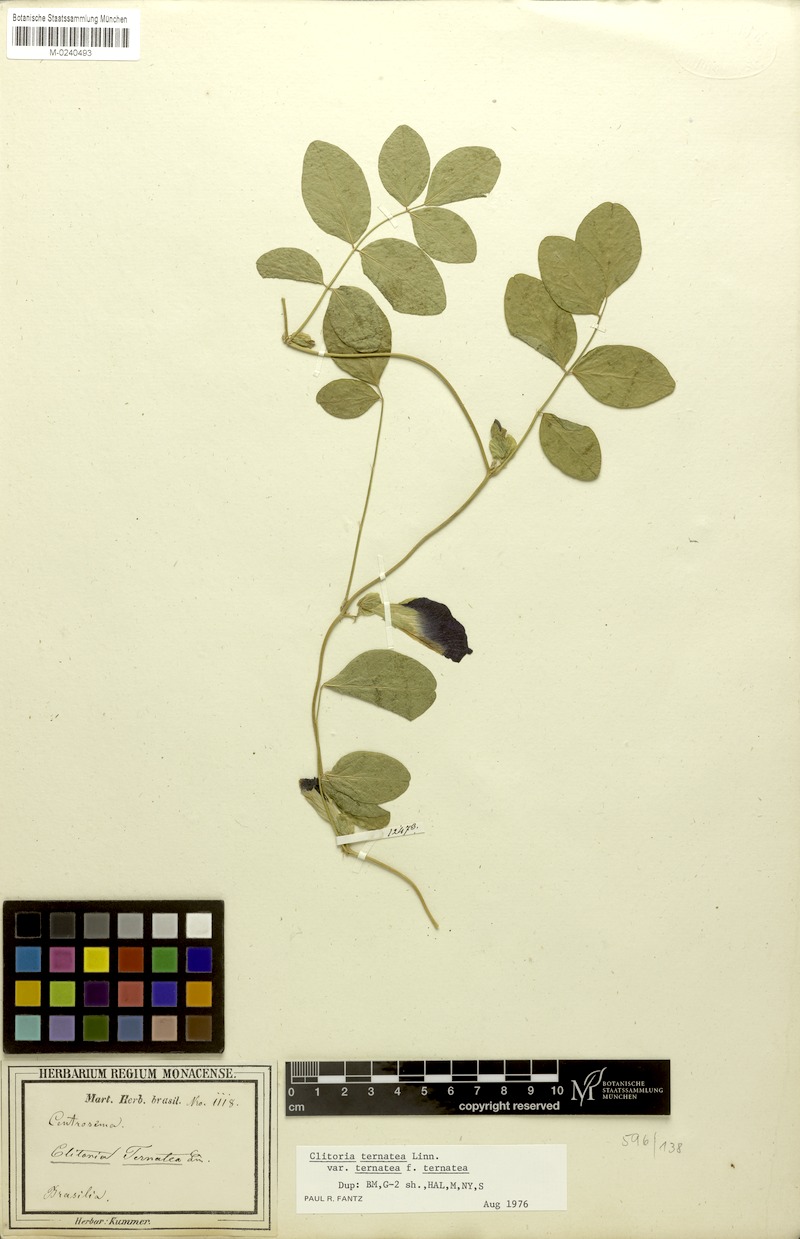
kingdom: Plantae
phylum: Tracheophyta
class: Magnoliopsida
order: Fabales
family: Fabaceae
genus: Clitoria
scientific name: Clitoria ternatea
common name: Asian pigeonwings
